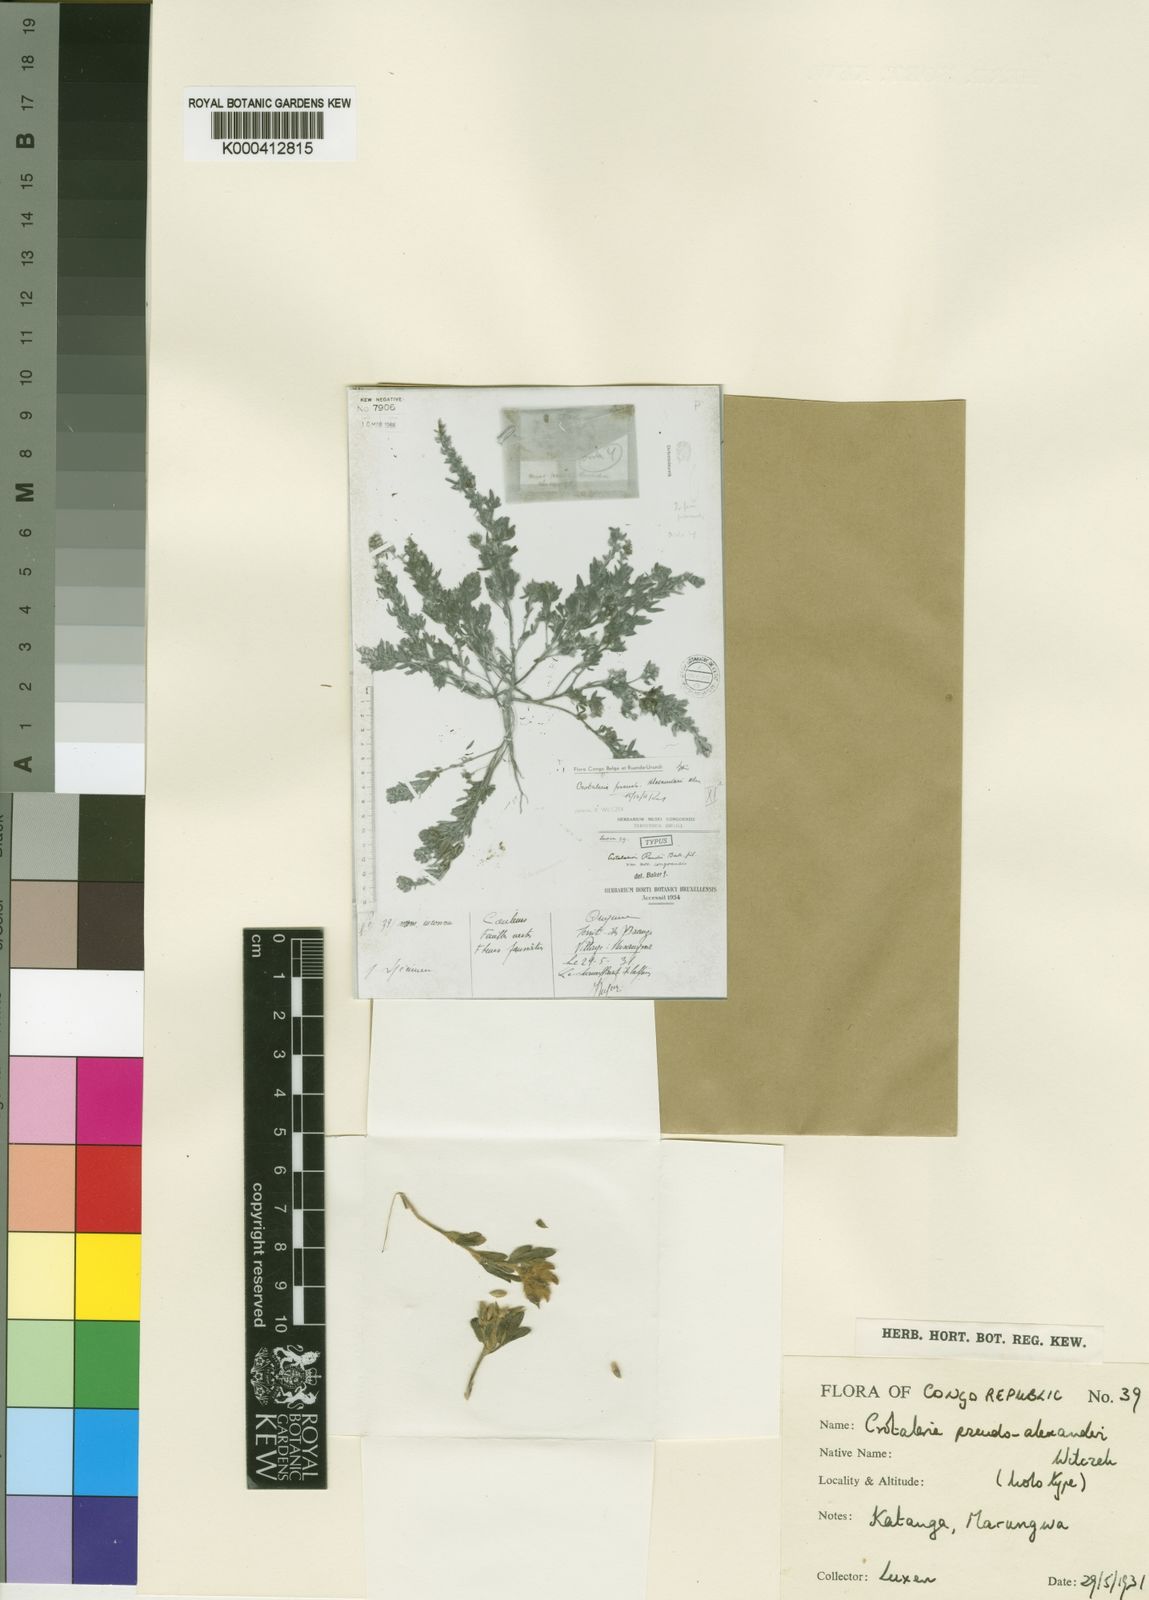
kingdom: Plantae
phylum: Tracheophyta
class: Magnoliopsida
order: Fabales
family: Fabaceae
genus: Crotalaria
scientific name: Crotalaria pseudoalexanderi
